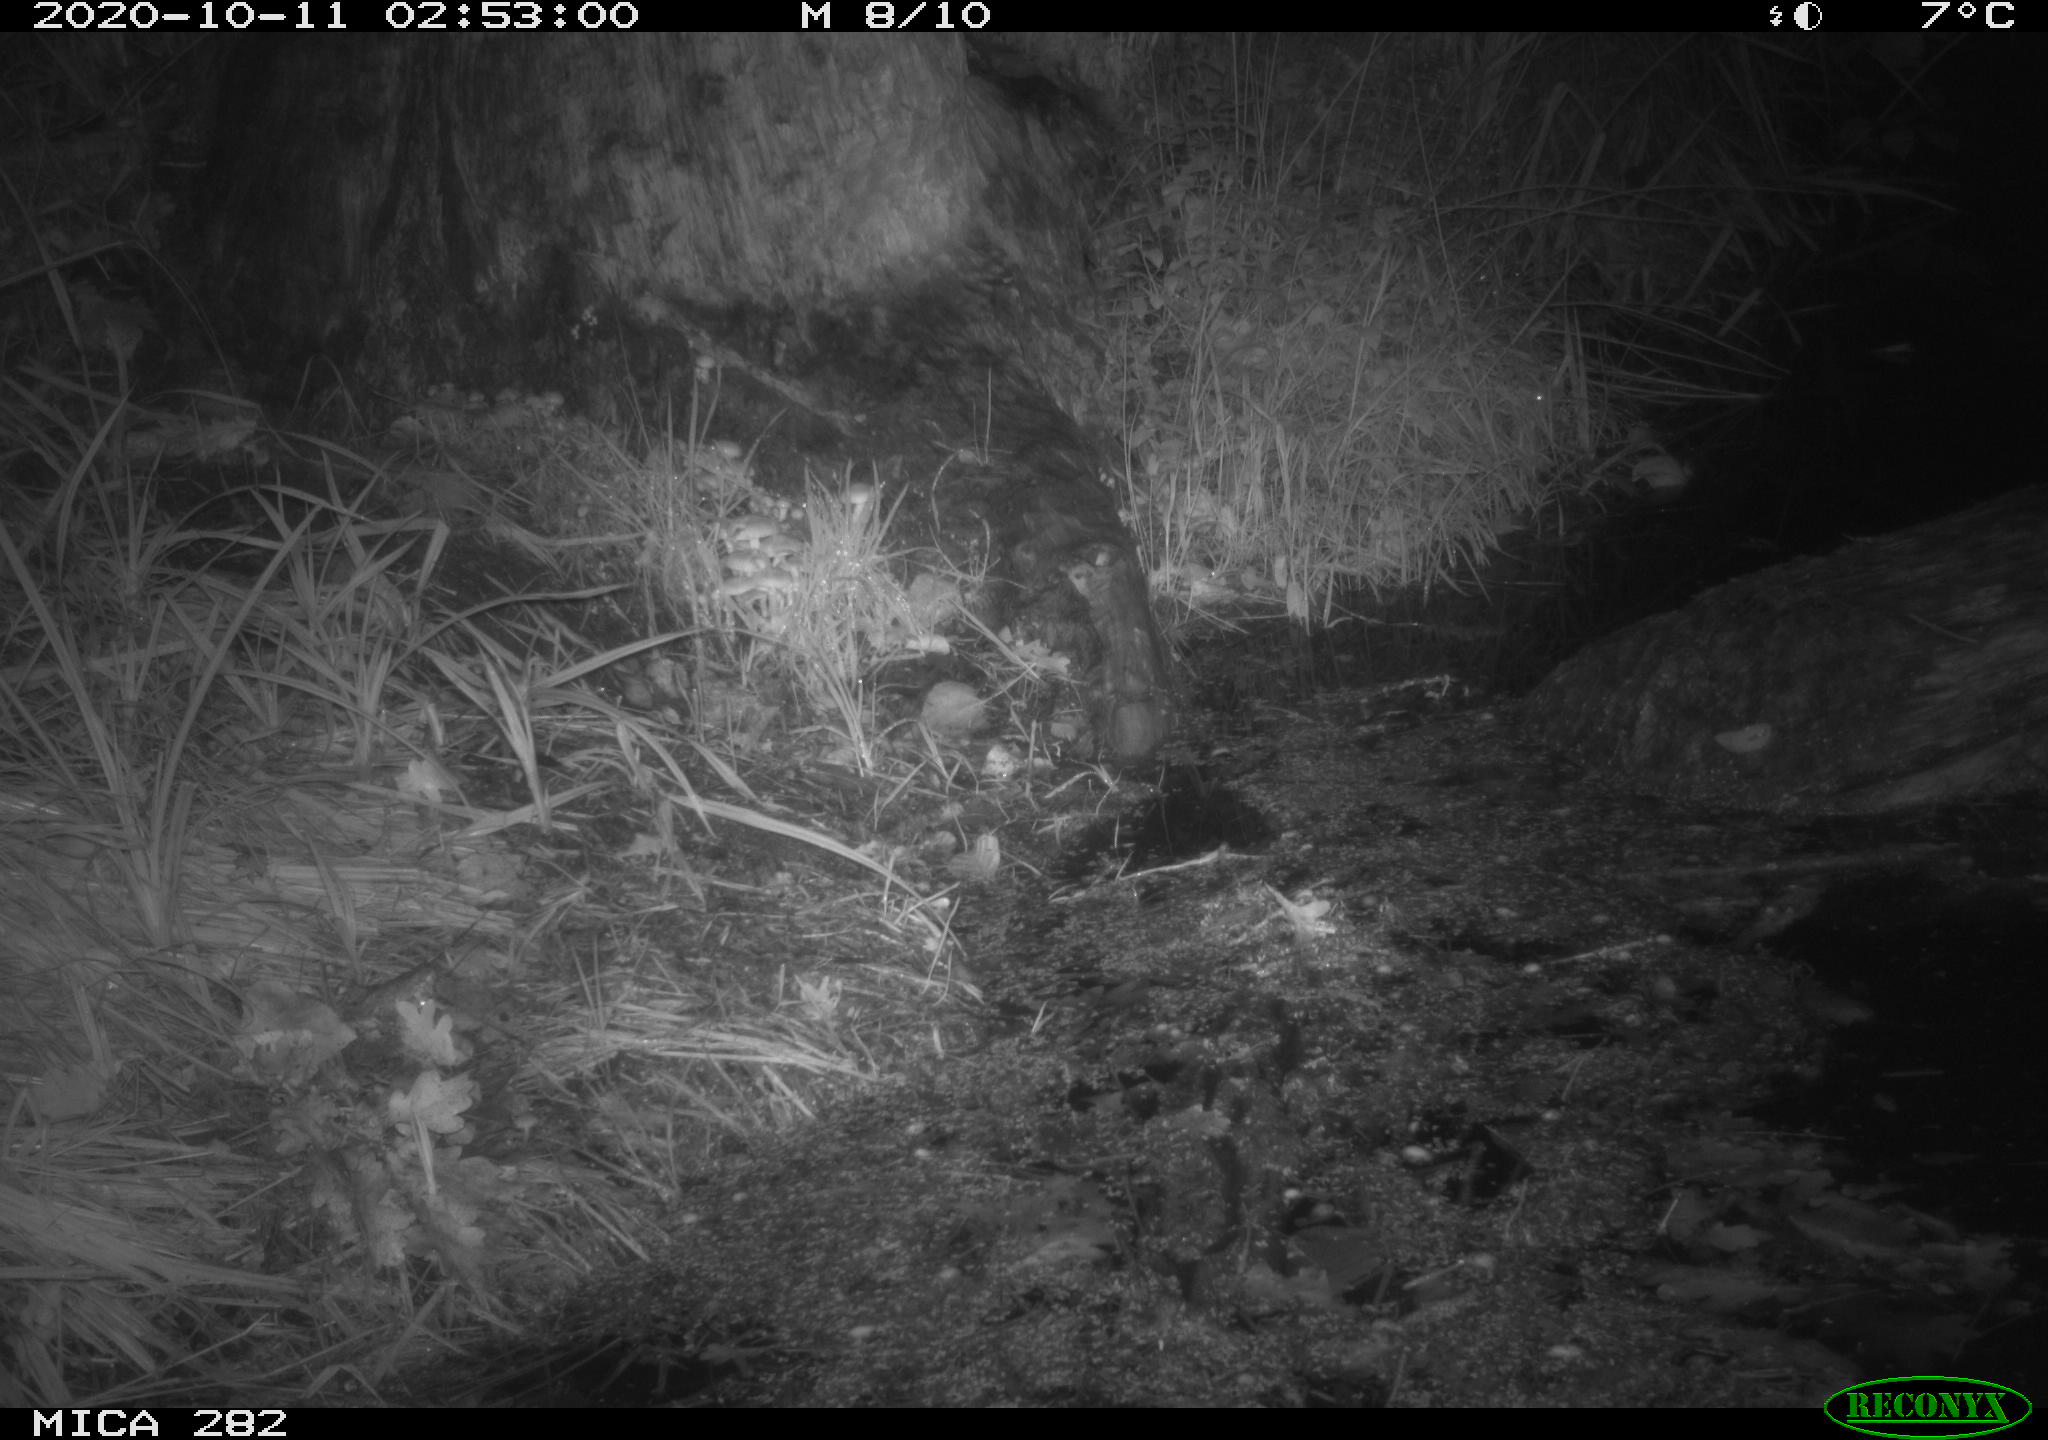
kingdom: Animalia
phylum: Chordata
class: Mammalia
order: Soricomorpha
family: Soricidae
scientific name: Soricidae
